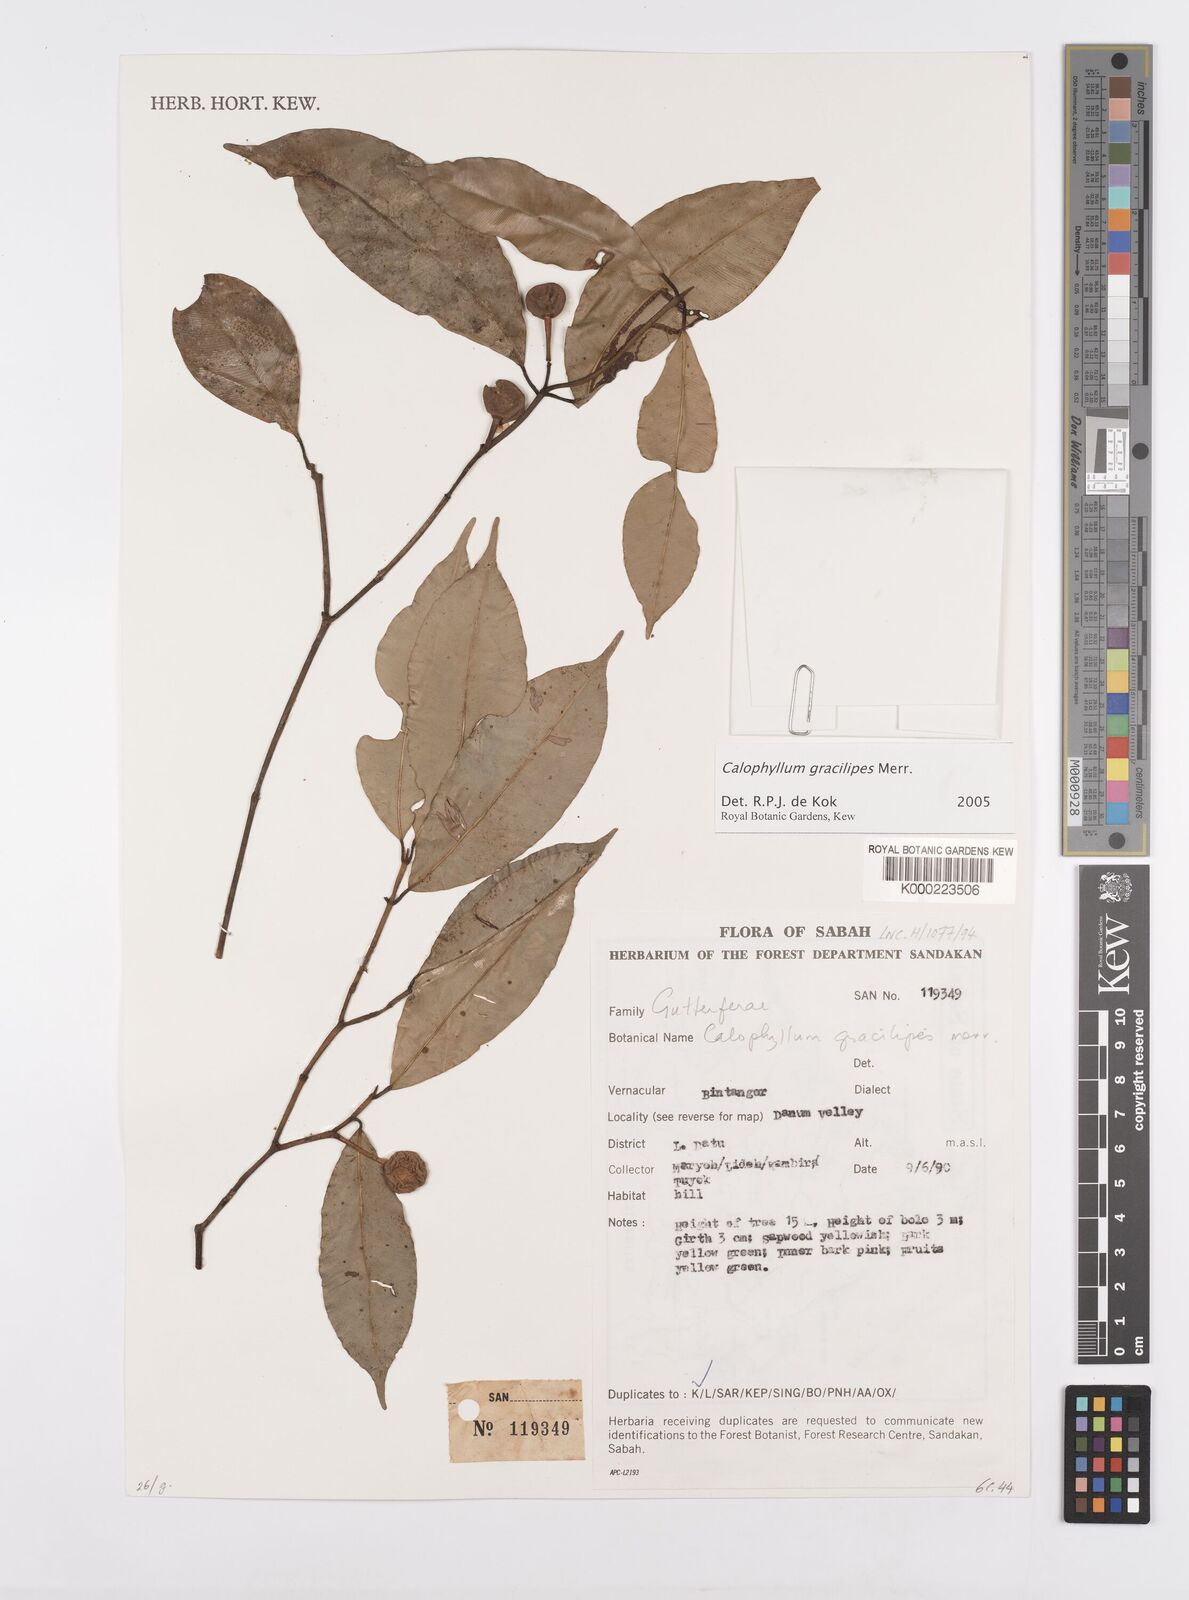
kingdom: Plantae
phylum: Tracheophyta
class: Magnoliopsida
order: Malpighiales
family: Calophyllaceae
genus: Calophyllum
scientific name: Calophyllum gracilipes
